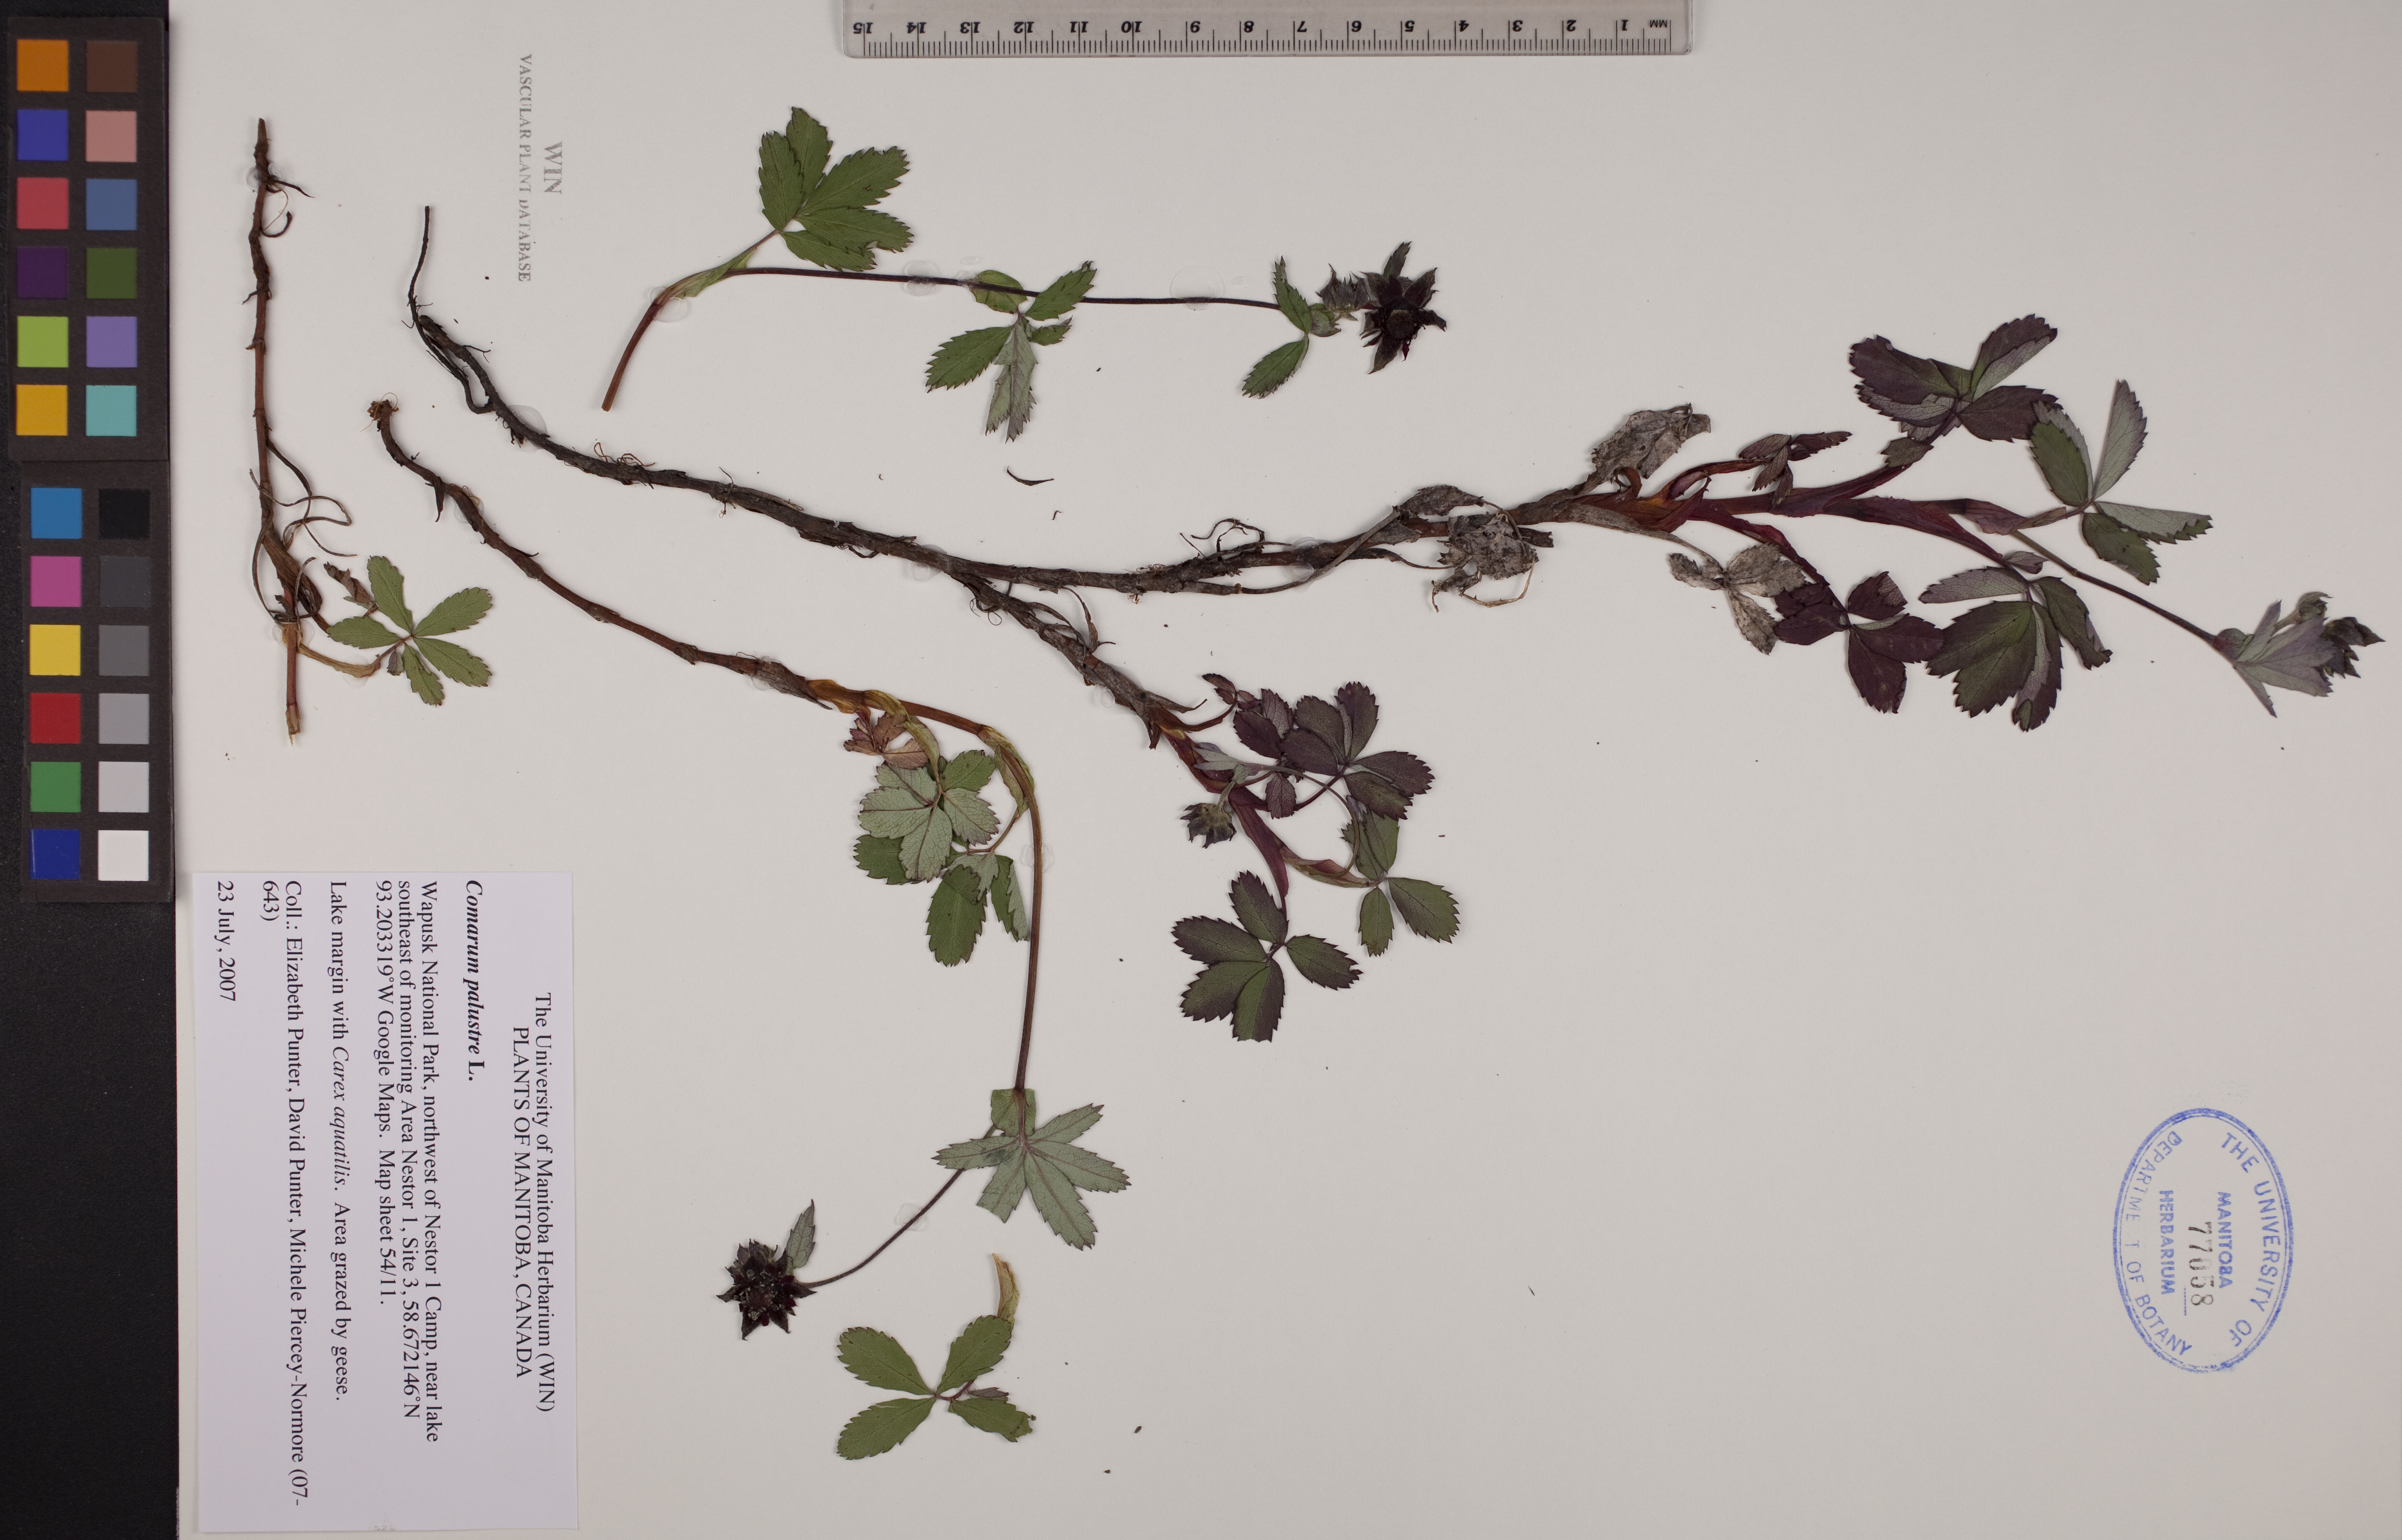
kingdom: Plantae
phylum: Tracheophyta
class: Magnoliopsida
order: Rosales
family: Rosaceae
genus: Comarum
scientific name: Comarum palustre
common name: Marsh cinquefoil
